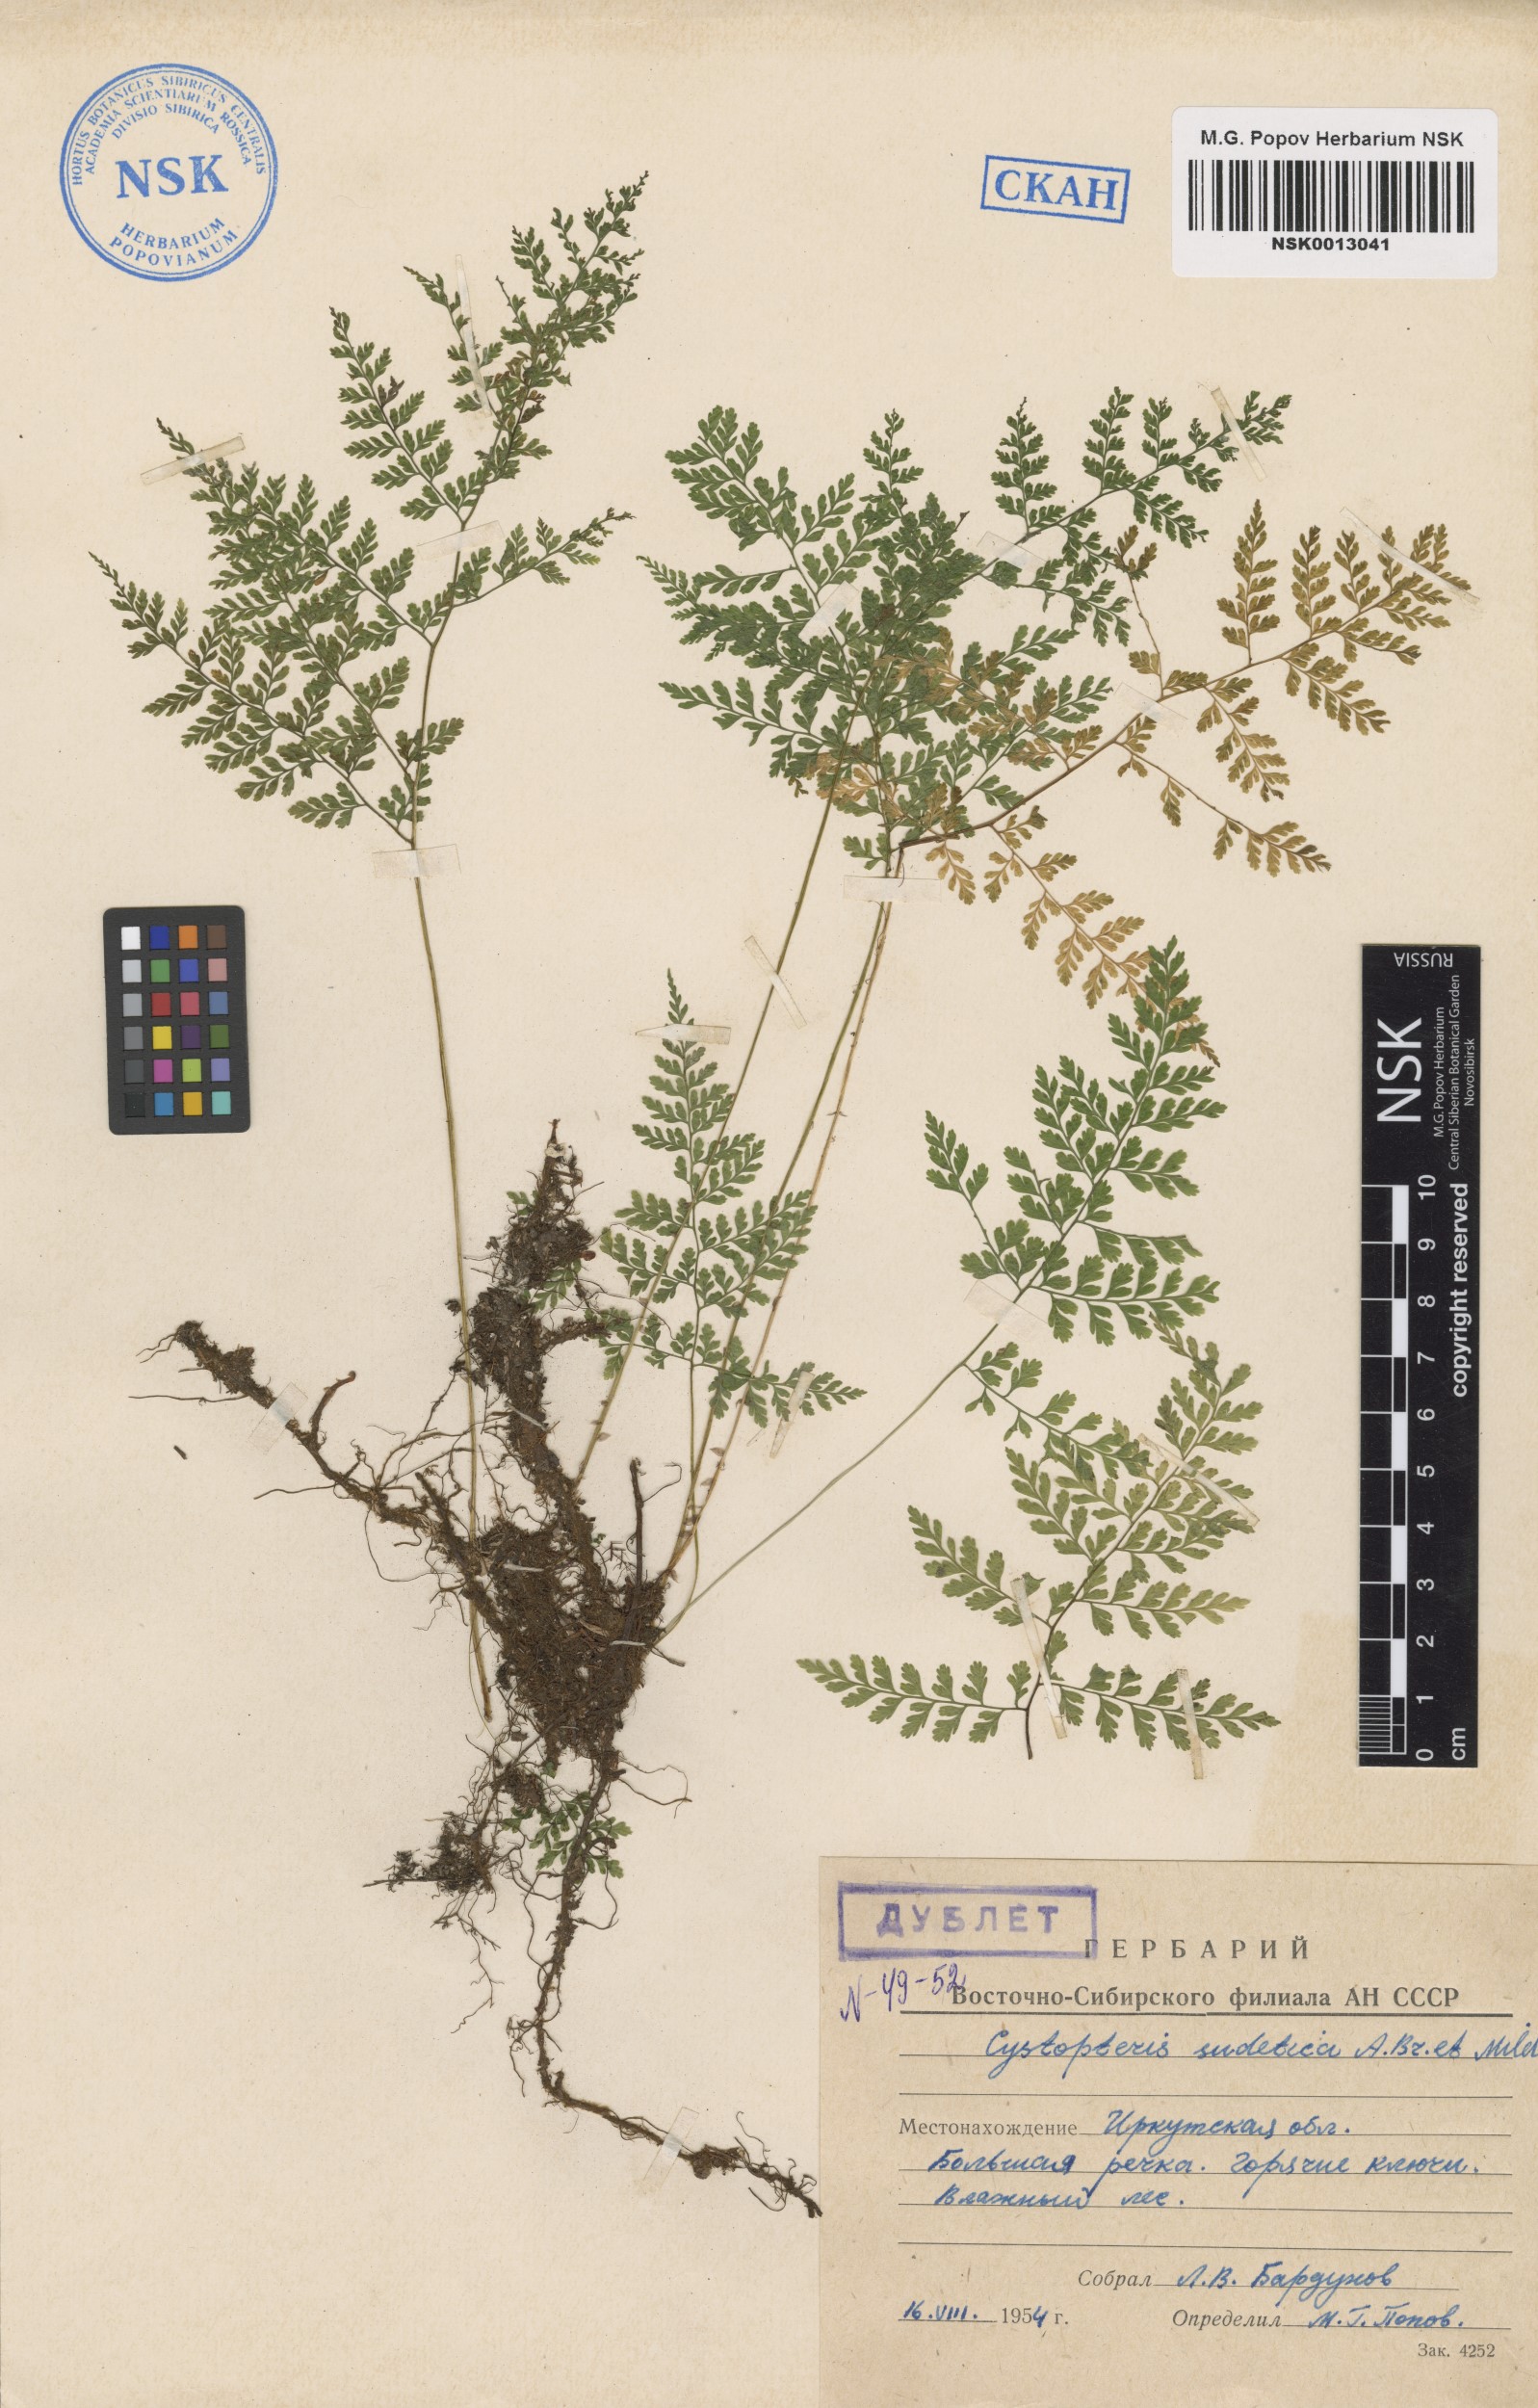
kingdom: Plantae
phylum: Tracheophyta
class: Polypodiopsida
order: Polypodiales
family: Cystopteridaceae
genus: Cystopteris
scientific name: Cystopteris sudetica
